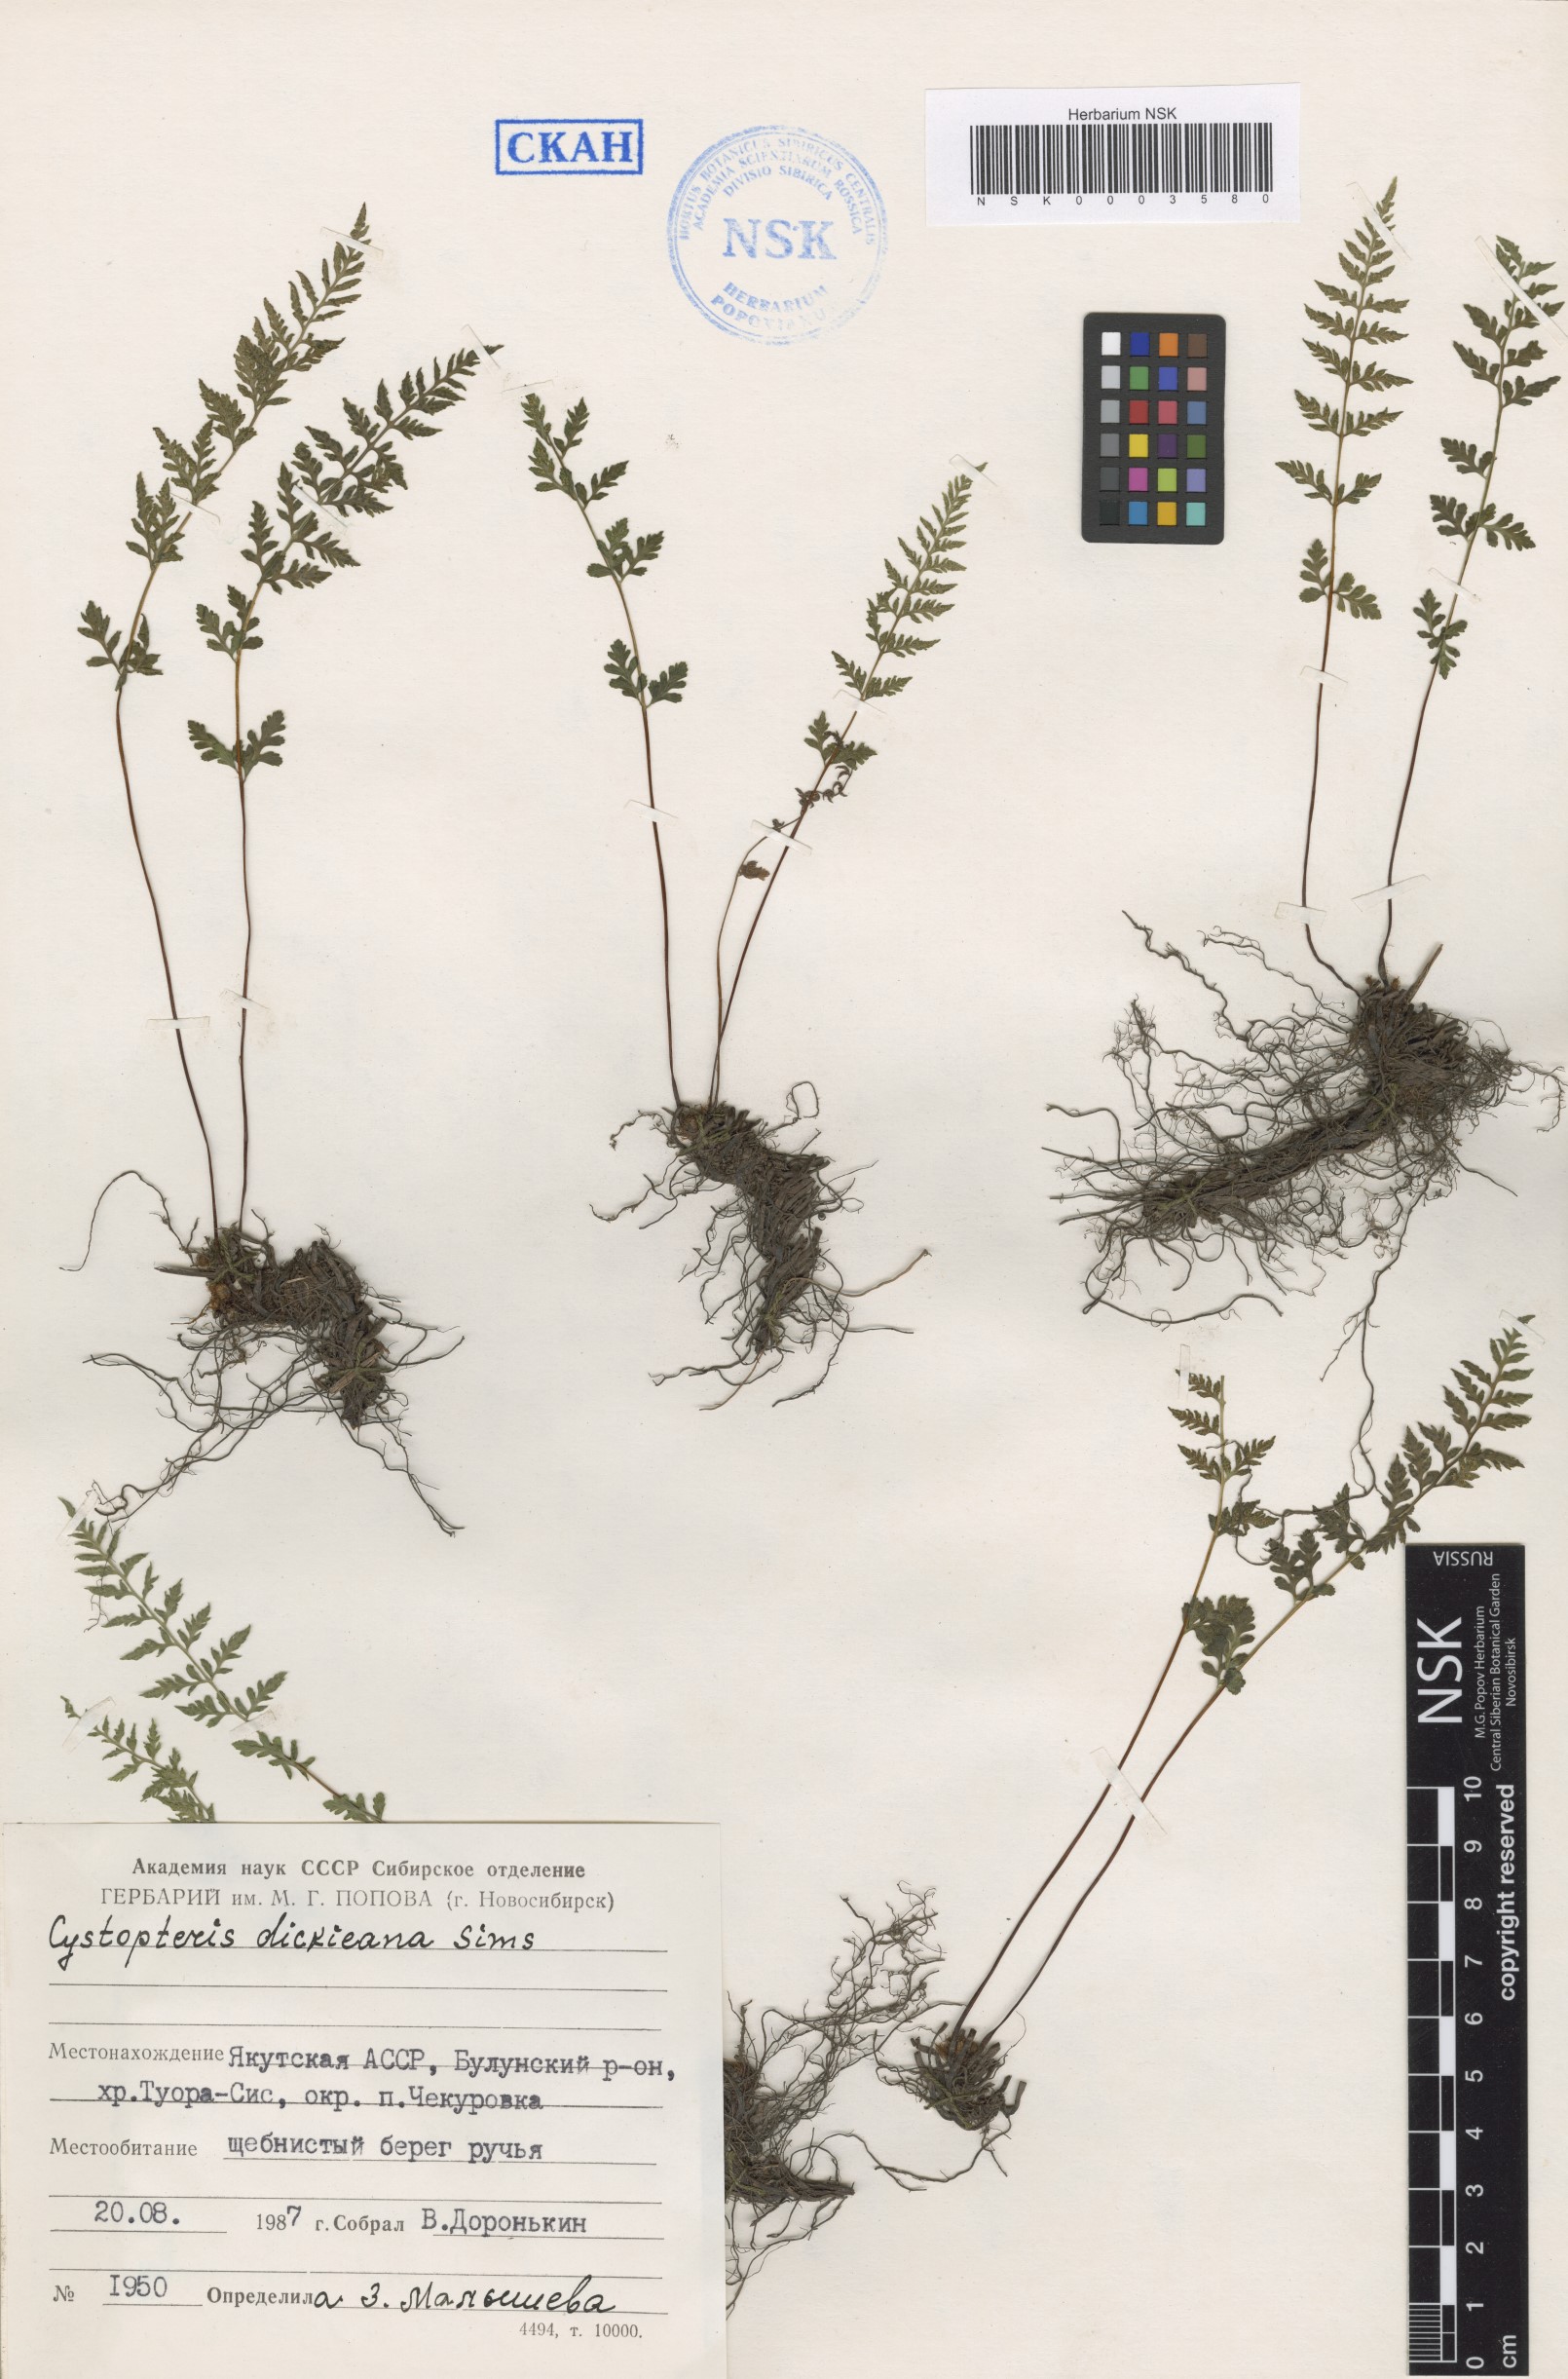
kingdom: Plantae
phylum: Tracheophyta
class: Polypodiopsida
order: Polypodiales
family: Cystopteridaceae
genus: Cystopteris
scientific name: Cystopteris dickieana
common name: Dickie's bladder-fern
